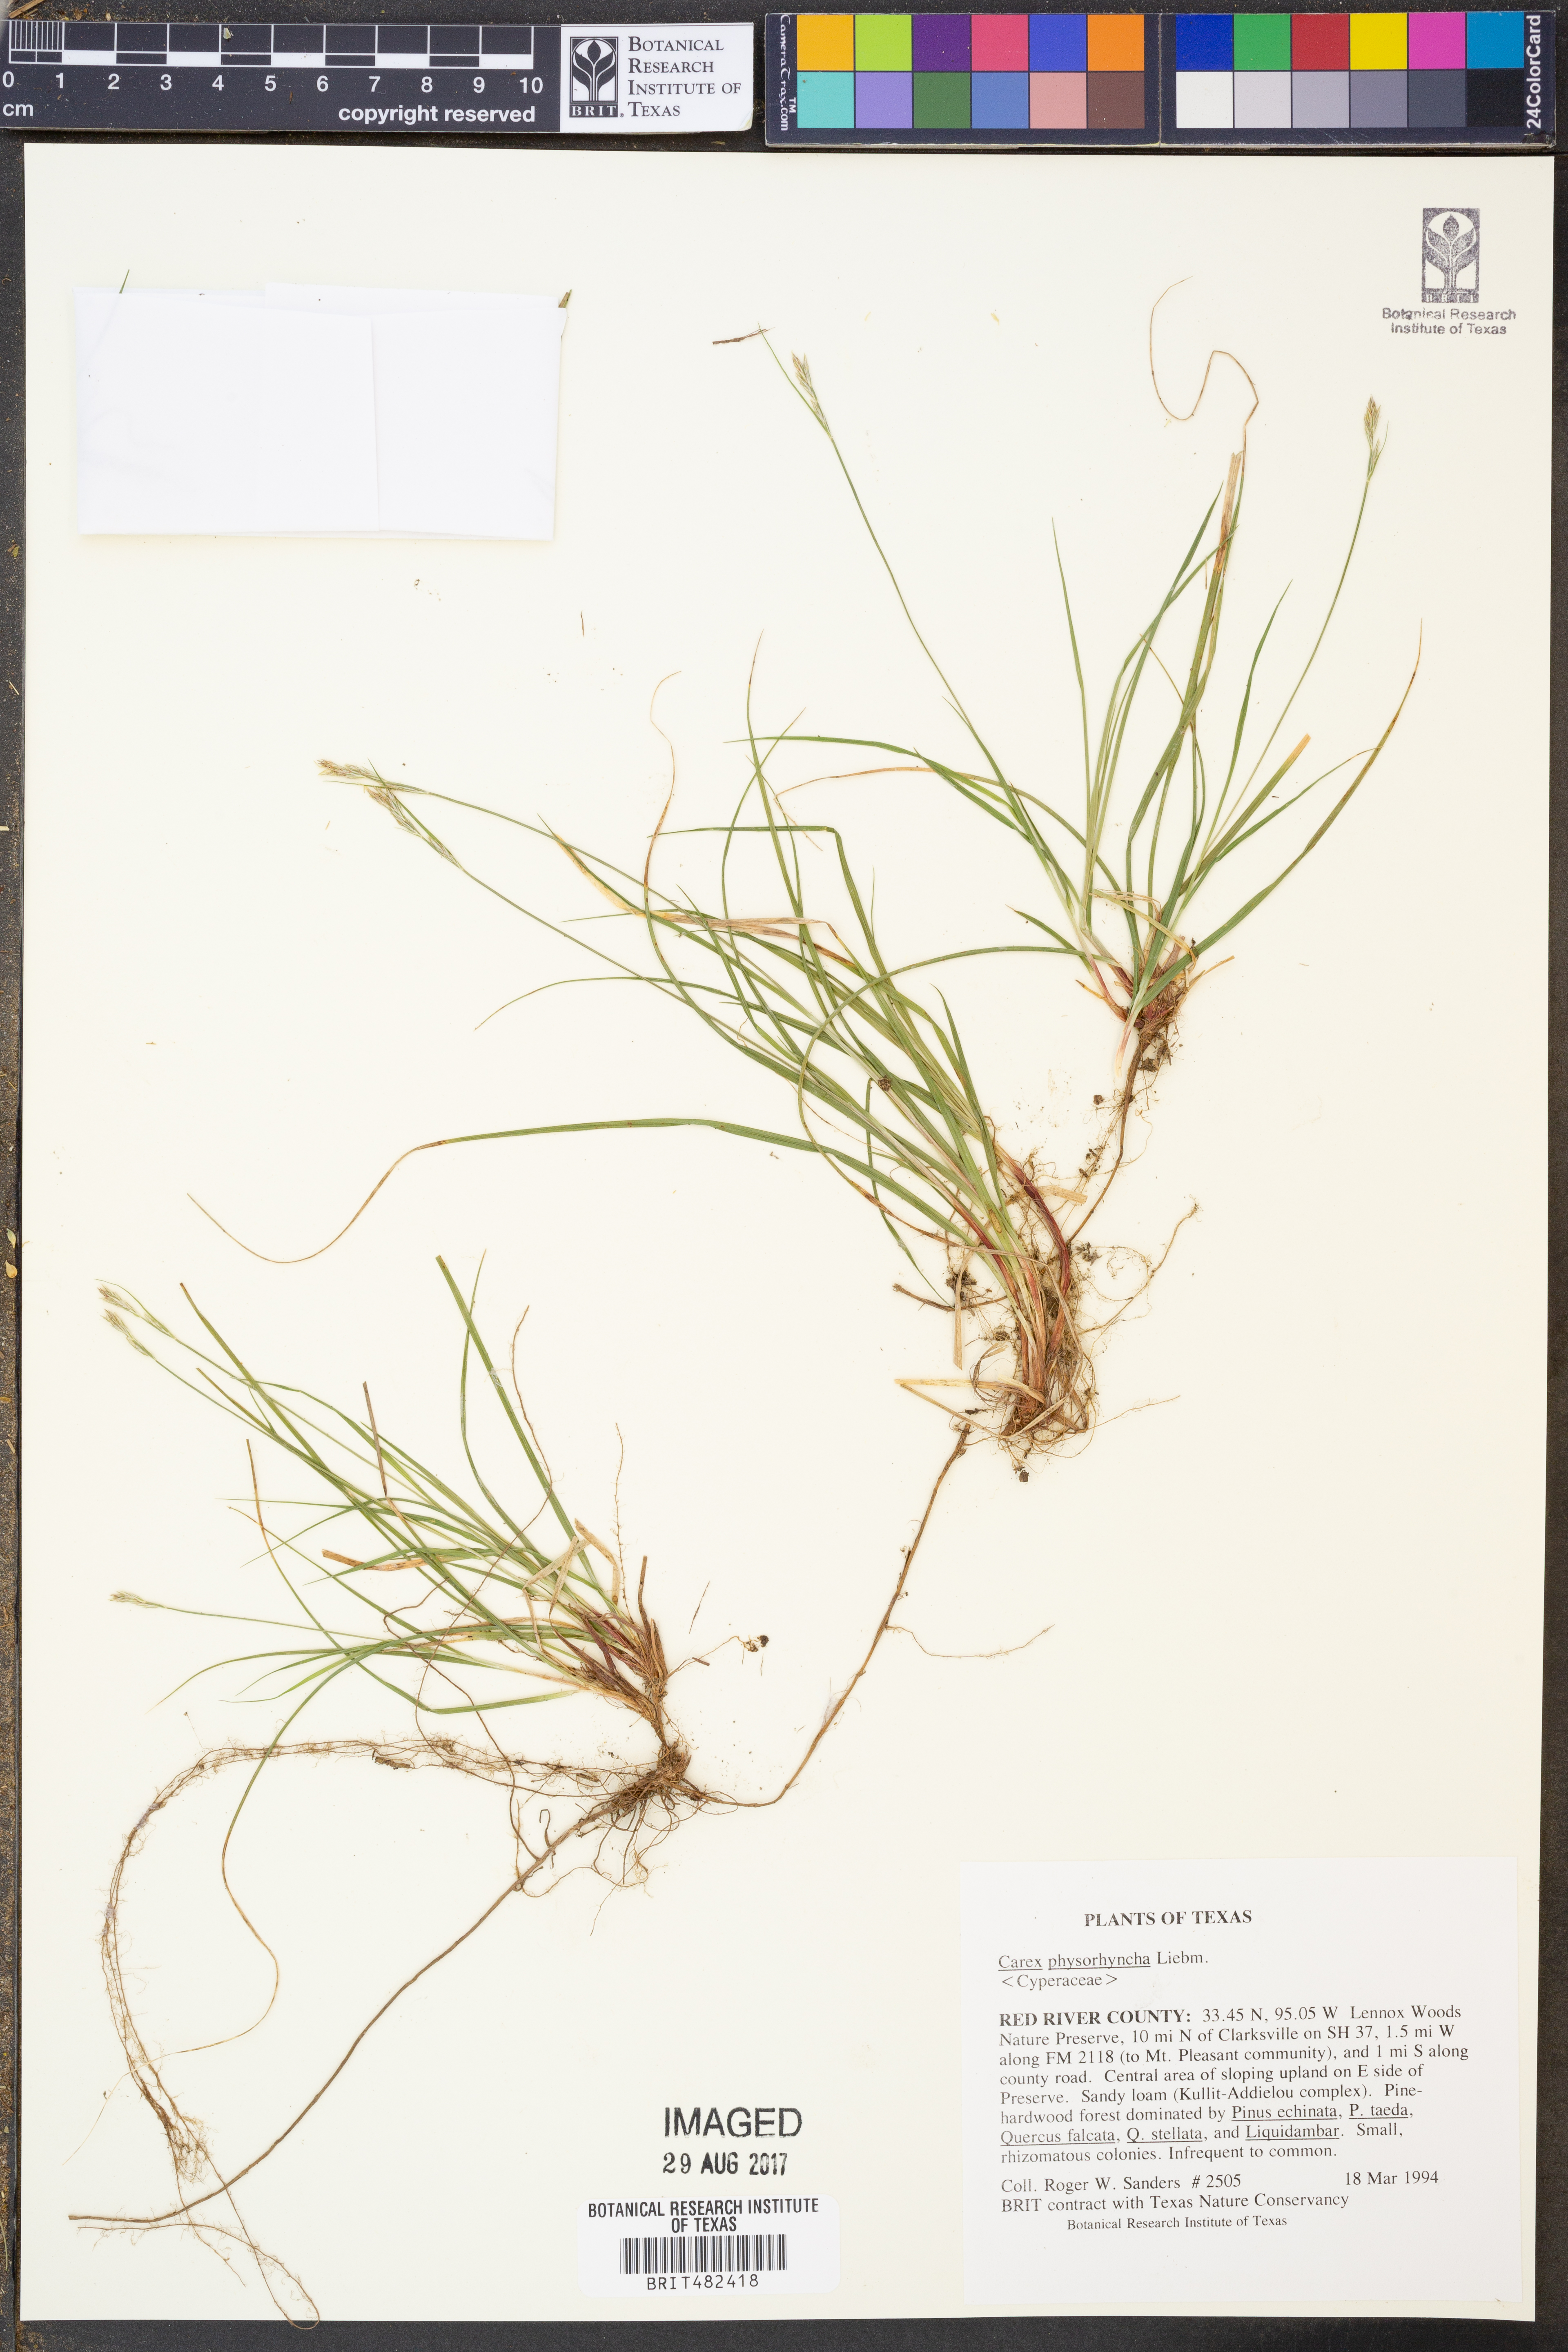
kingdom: Plantae
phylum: Tracheophyta
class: Liliopsida
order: Poales
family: Cyperaceae
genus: Carex
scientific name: Carex albicans
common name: Bellow-beaked sedge
